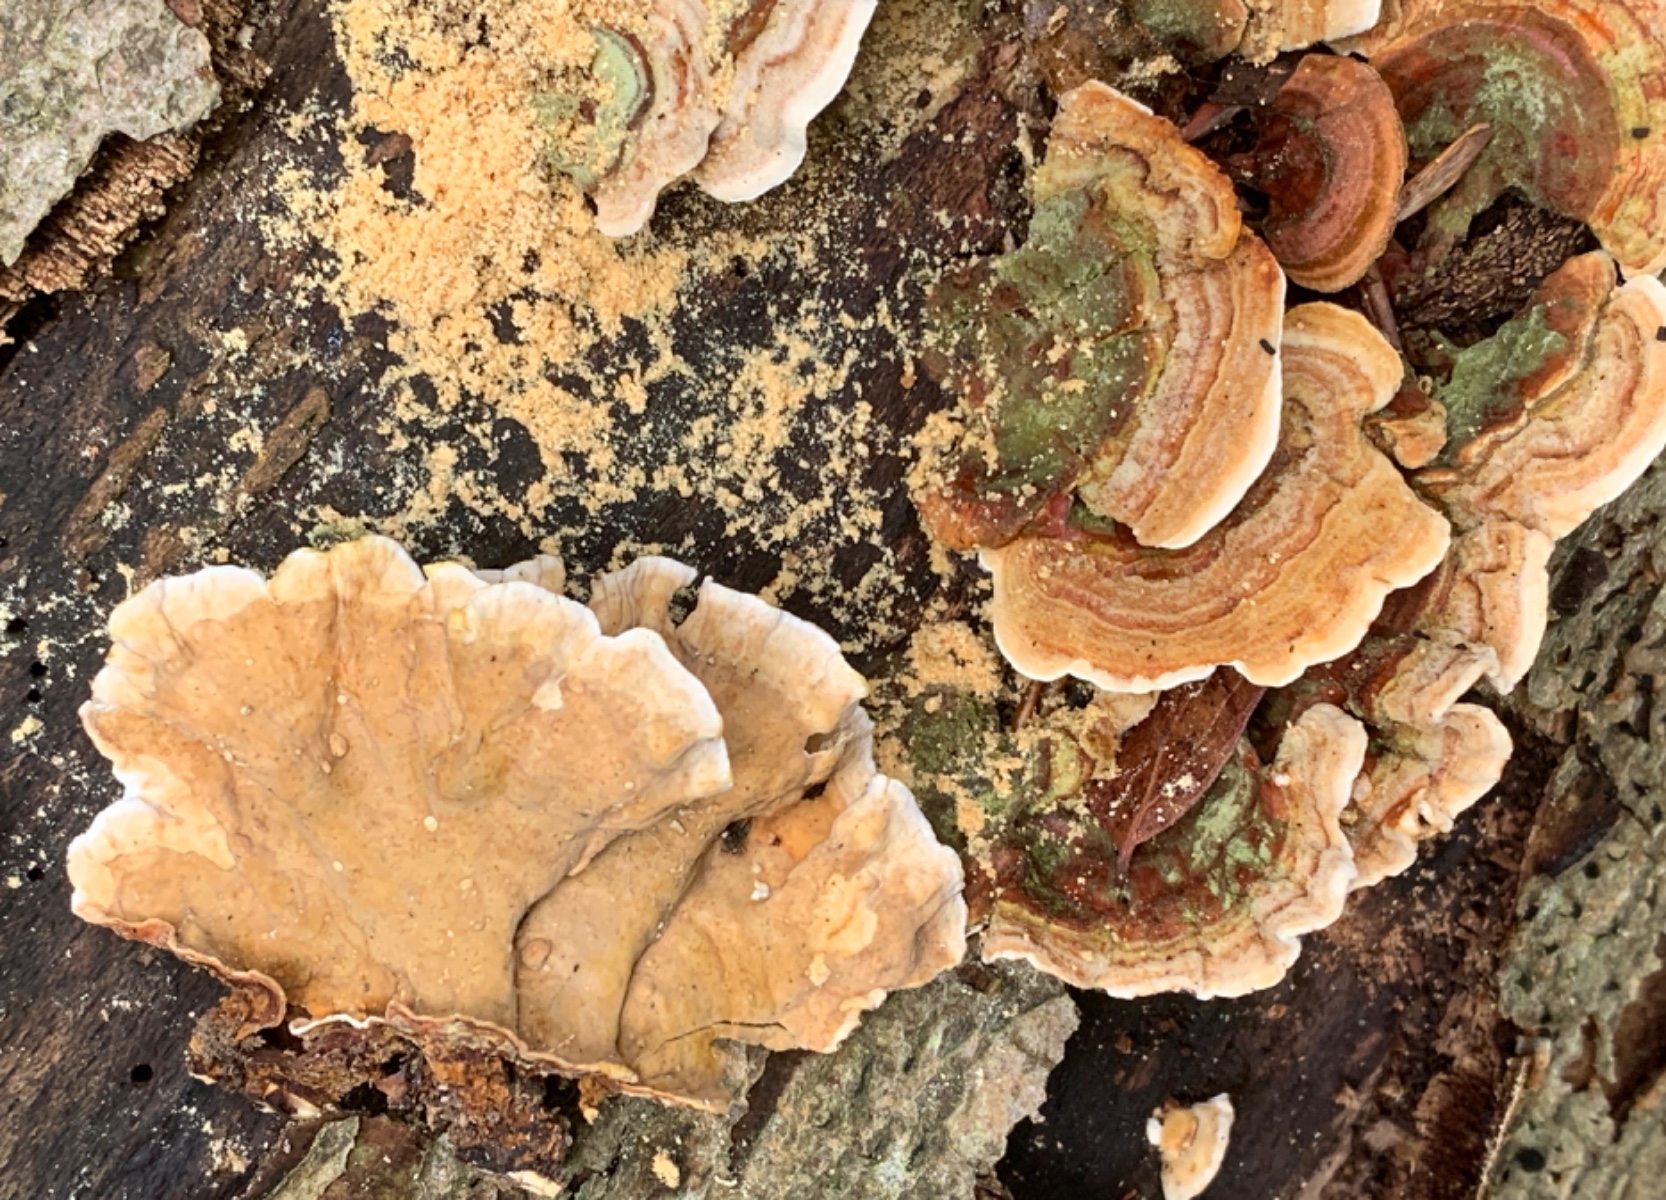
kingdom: Fungi
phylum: Basidiomycota
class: Agaricomycetes
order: Russulales
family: Stereaceae
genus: Stereum
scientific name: Stereum subtomentosum
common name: smuk lædersvamp
